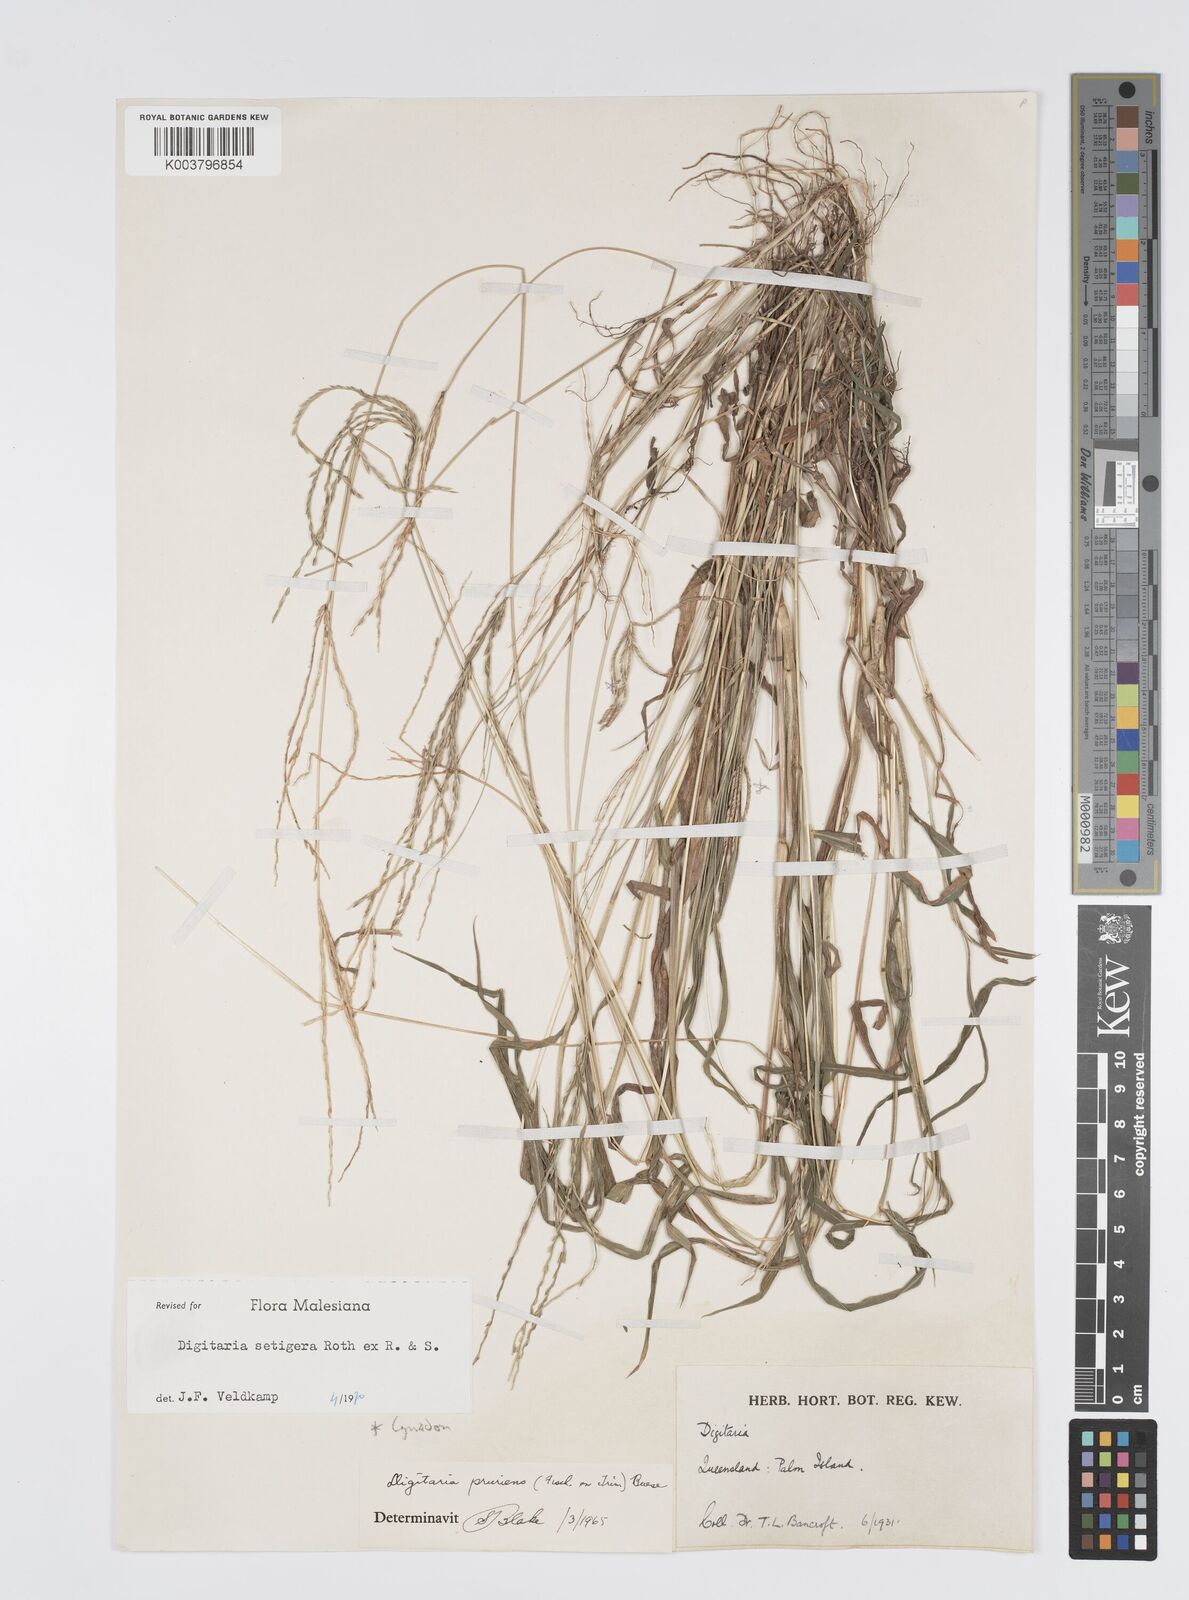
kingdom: Plantae
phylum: Tracheophyta
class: Liliopsida
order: Poales
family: Poaceae
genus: Digitaria
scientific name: Digitaria setigera
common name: East indian crabgrass
